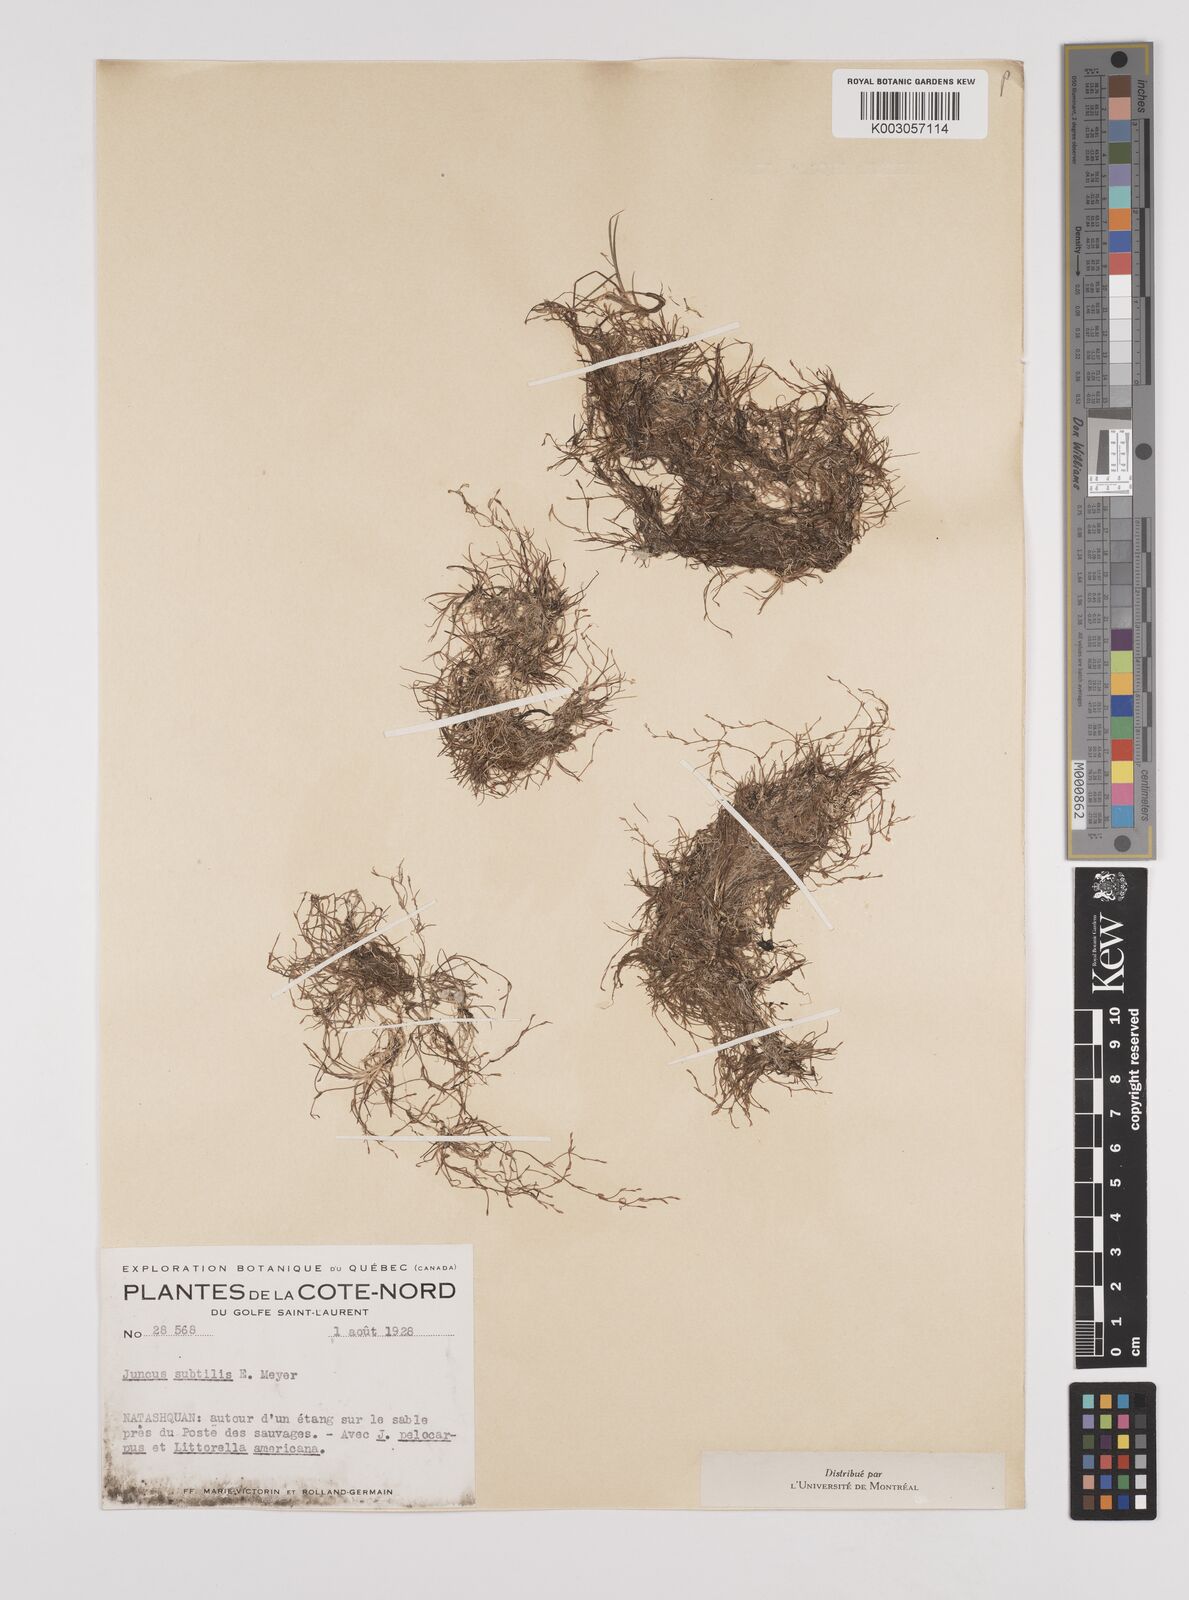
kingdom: Plantae
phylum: Tracheophyta
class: Liliopsida
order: Poales
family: Juncaceae
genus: Juncus
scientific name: Juncus subtilis
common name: Creeping rush
